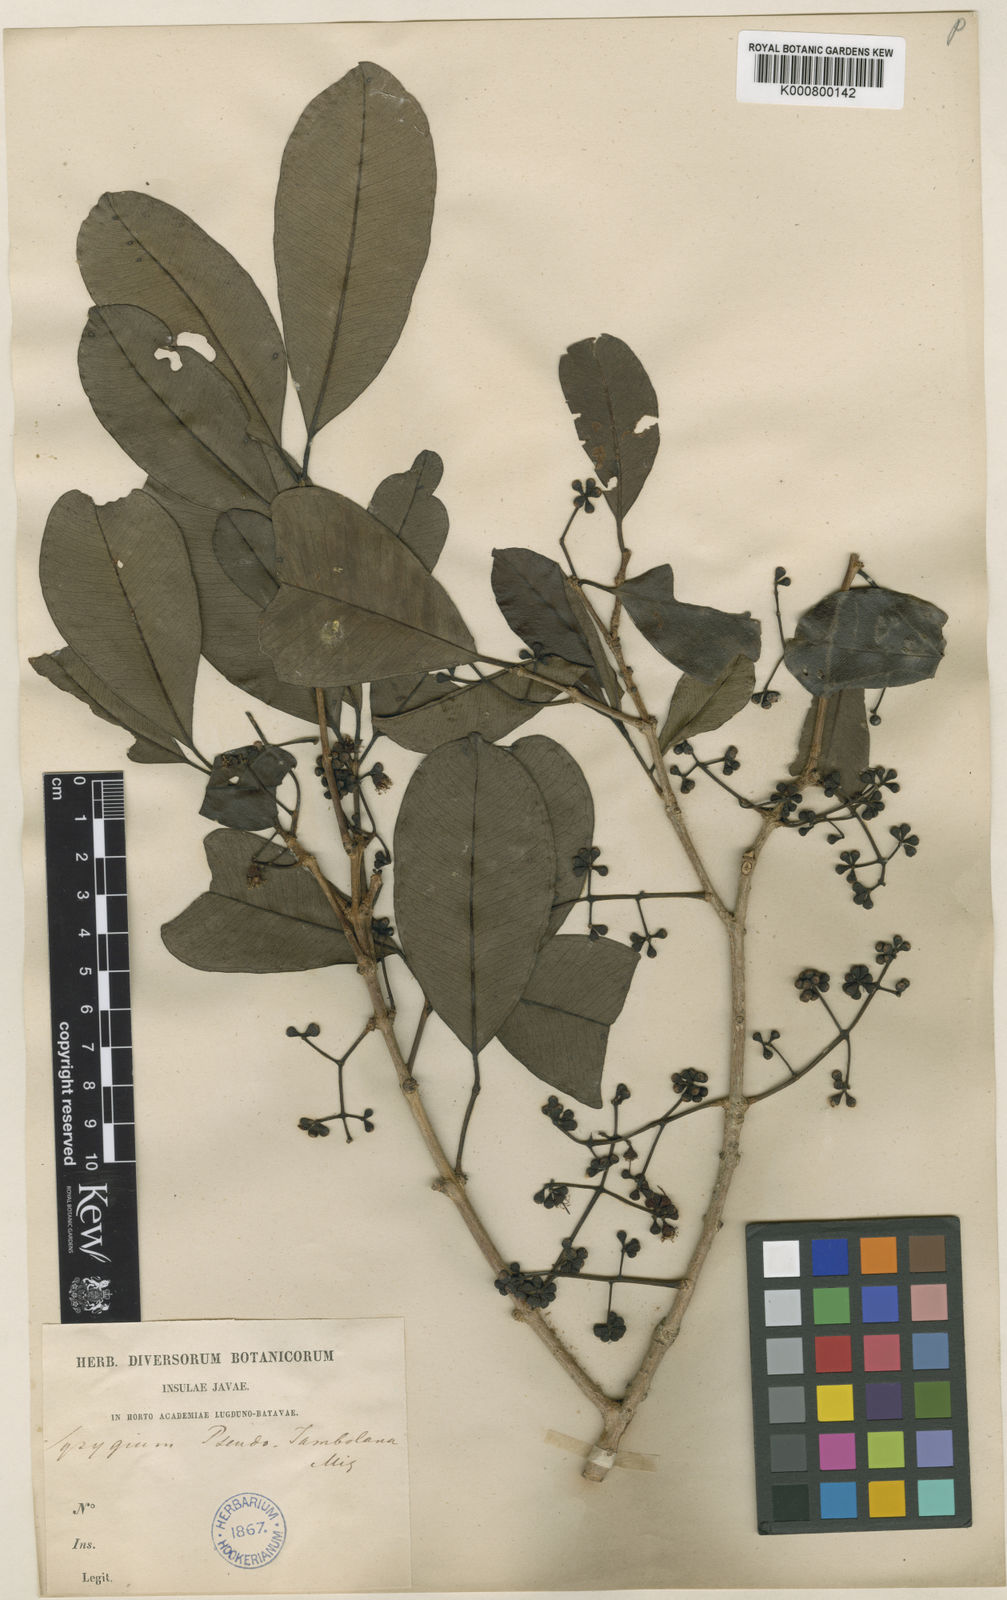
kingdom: Plantae
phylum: Tracheophyta
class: Magnoliopsida
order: Myrtales
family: Myrtaceae
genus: Syzygium
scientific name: Syzygium cumini
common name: Java plum
